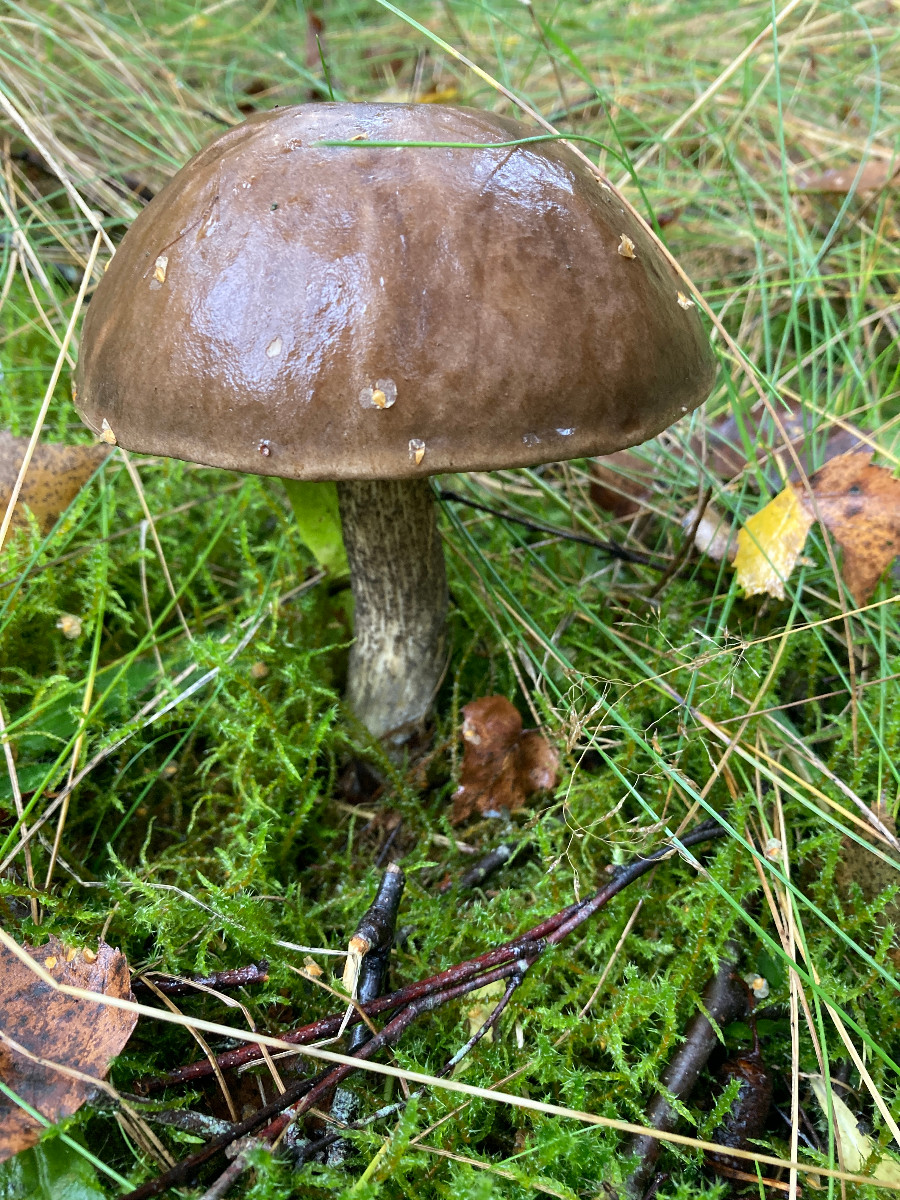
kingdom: Fungi
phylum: Basidiomycota
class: Agaricomycetes
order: Boletales
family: Boletaceae
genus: Leccinum
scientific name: Leccinum scabrum
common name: brun skælrørhat
